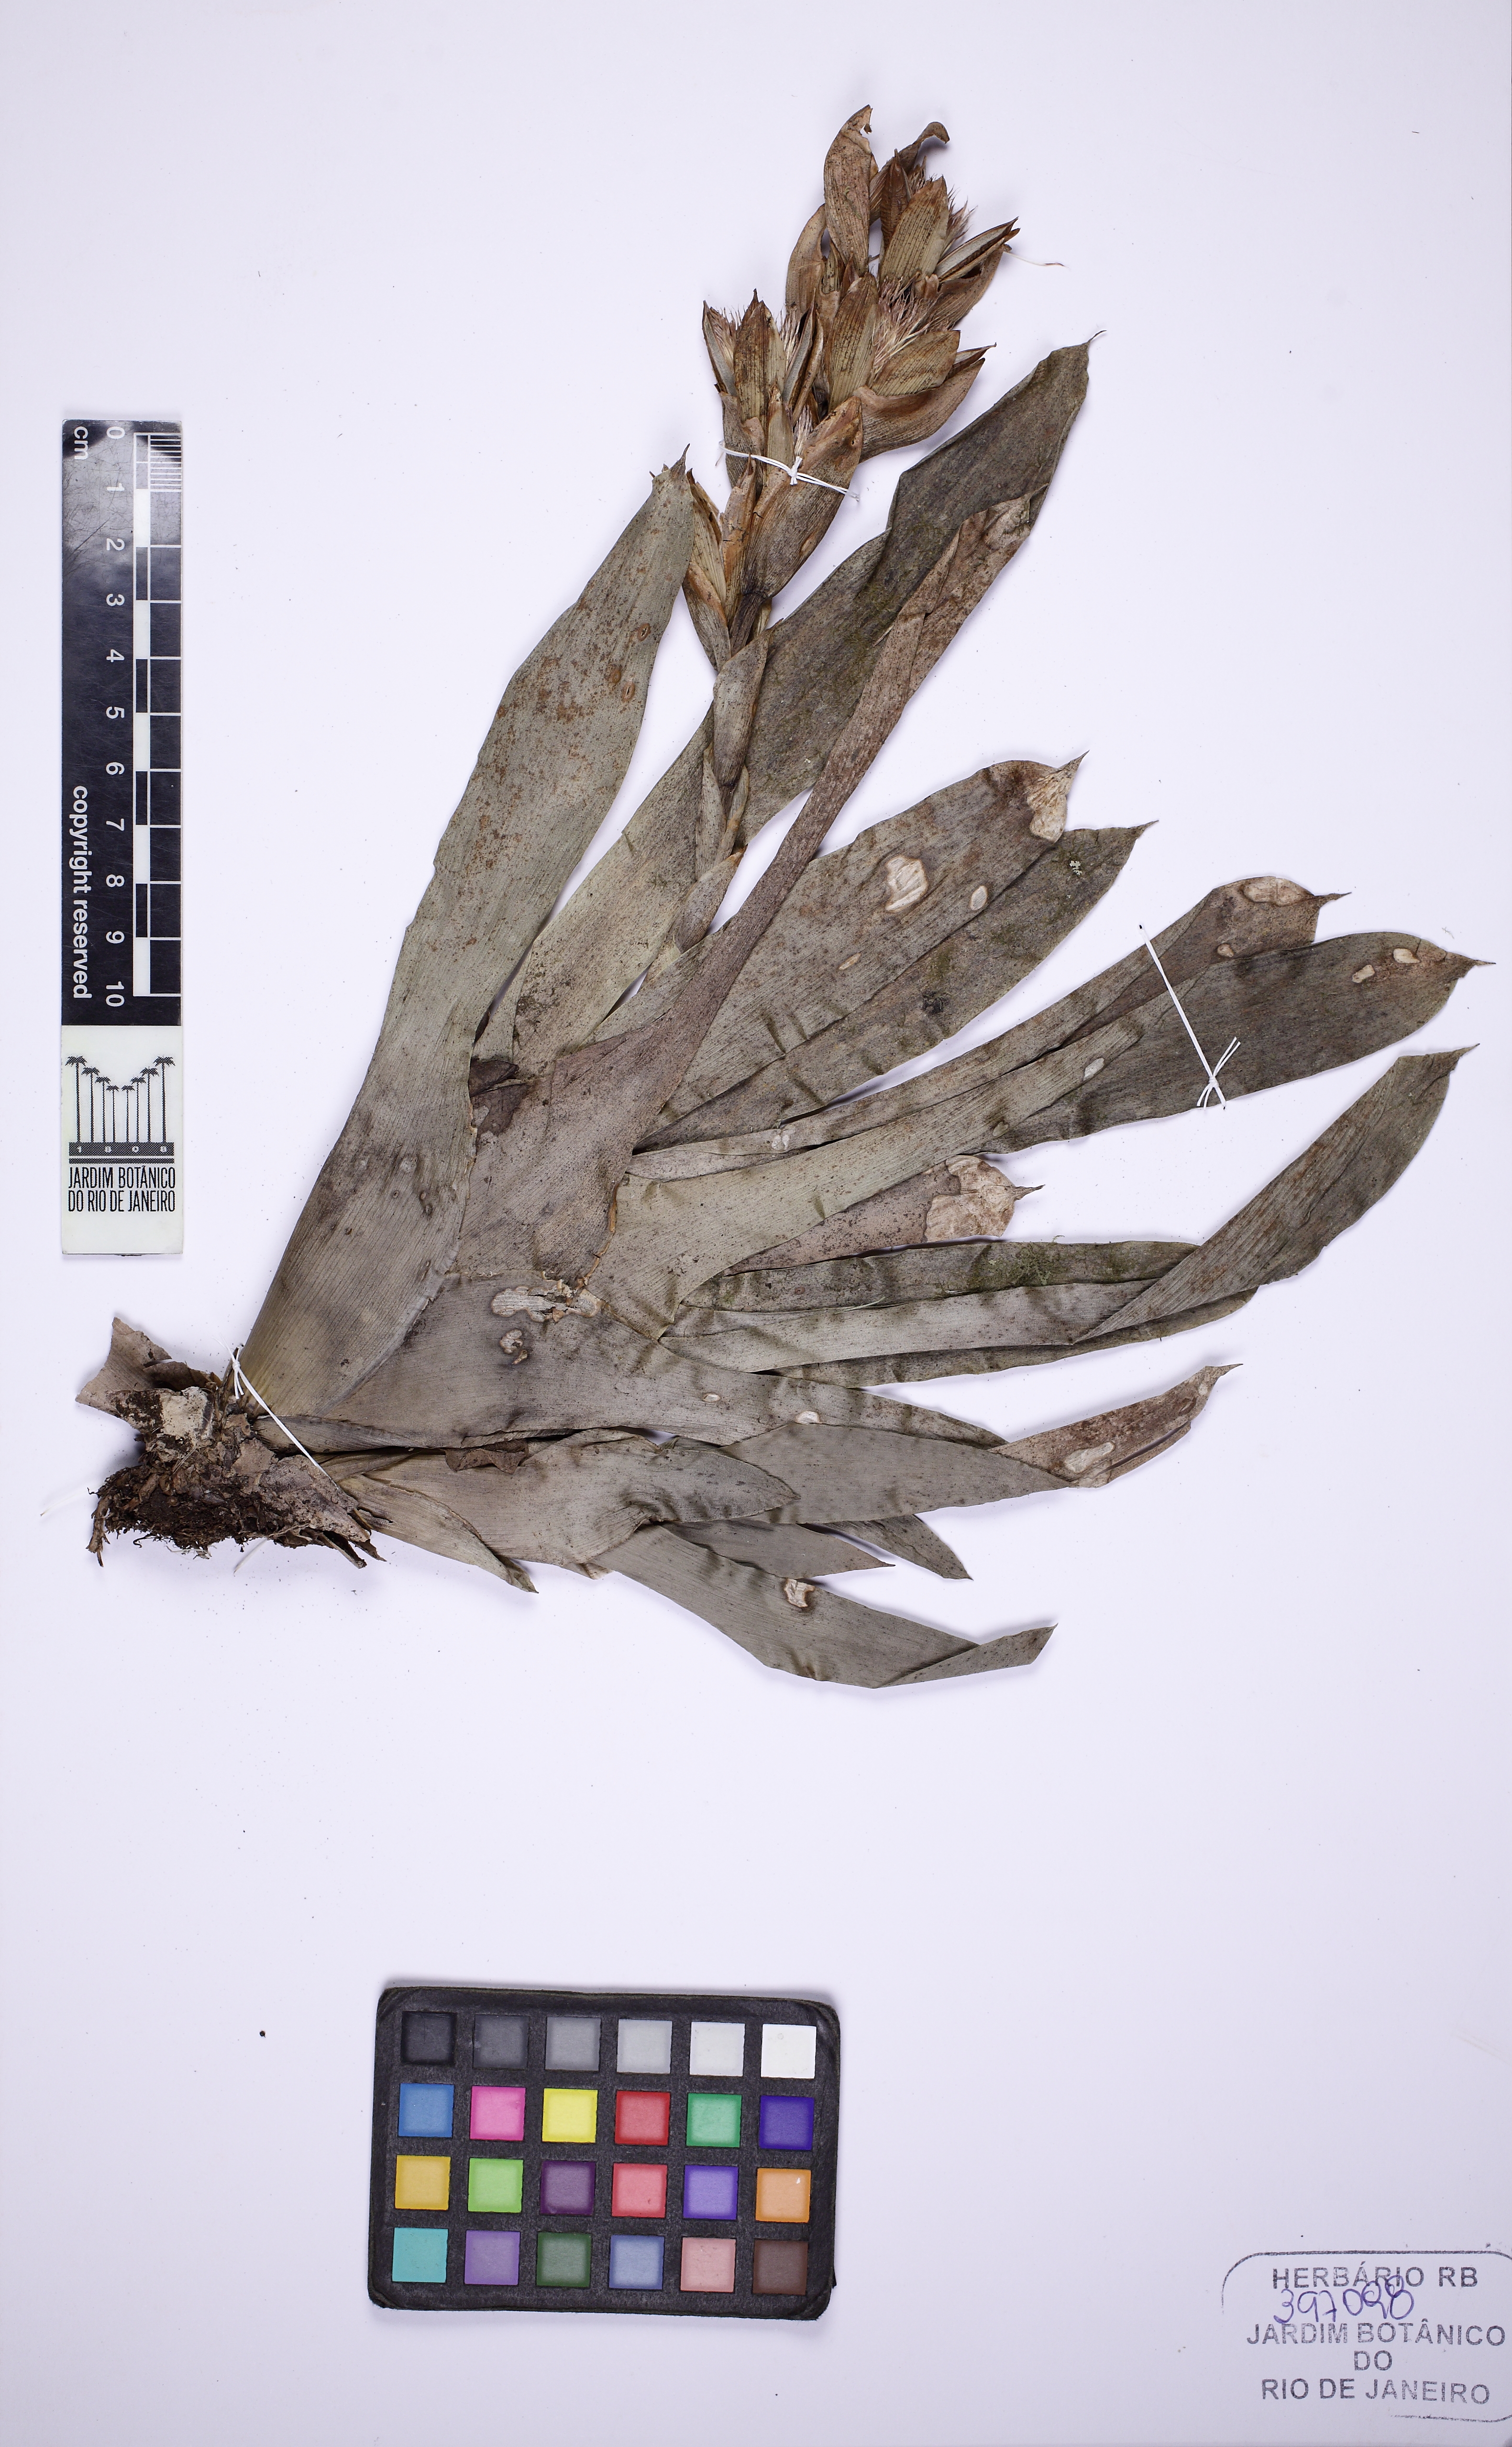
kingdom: Plantae
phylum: Tracheophyta
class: Liliopsida
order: Poales
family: Bromeliaceae
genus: Vriesea
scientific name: Vriesea heterostachys
